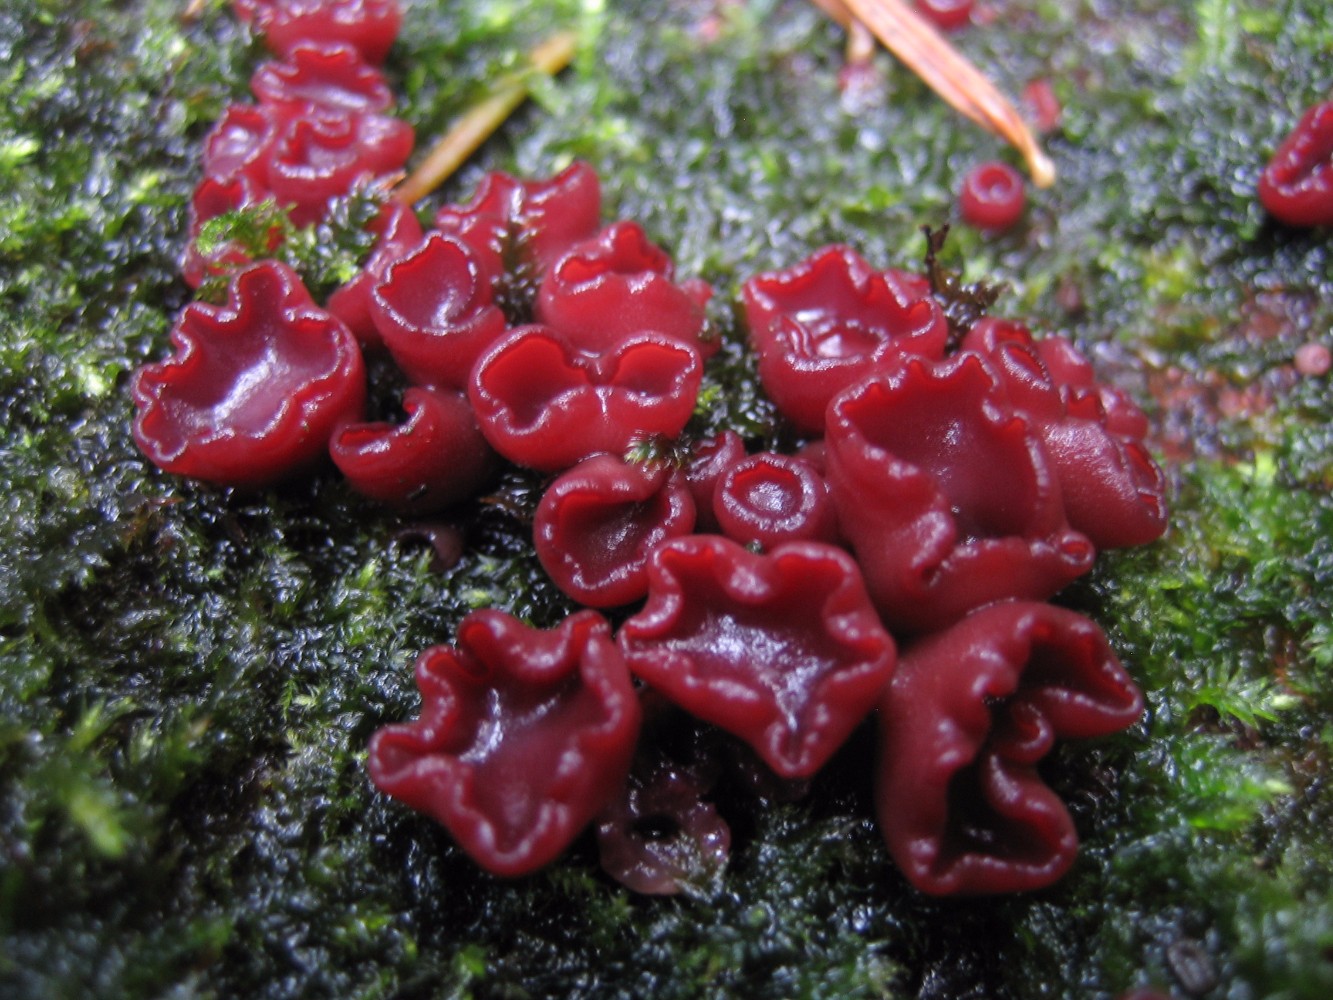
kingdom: Fungi
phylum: Ascomycota
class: Leotiomycetes
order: Helotiales
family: Gelatinodiscaceae
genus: Ascocoryne
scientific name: Ascocoryne
